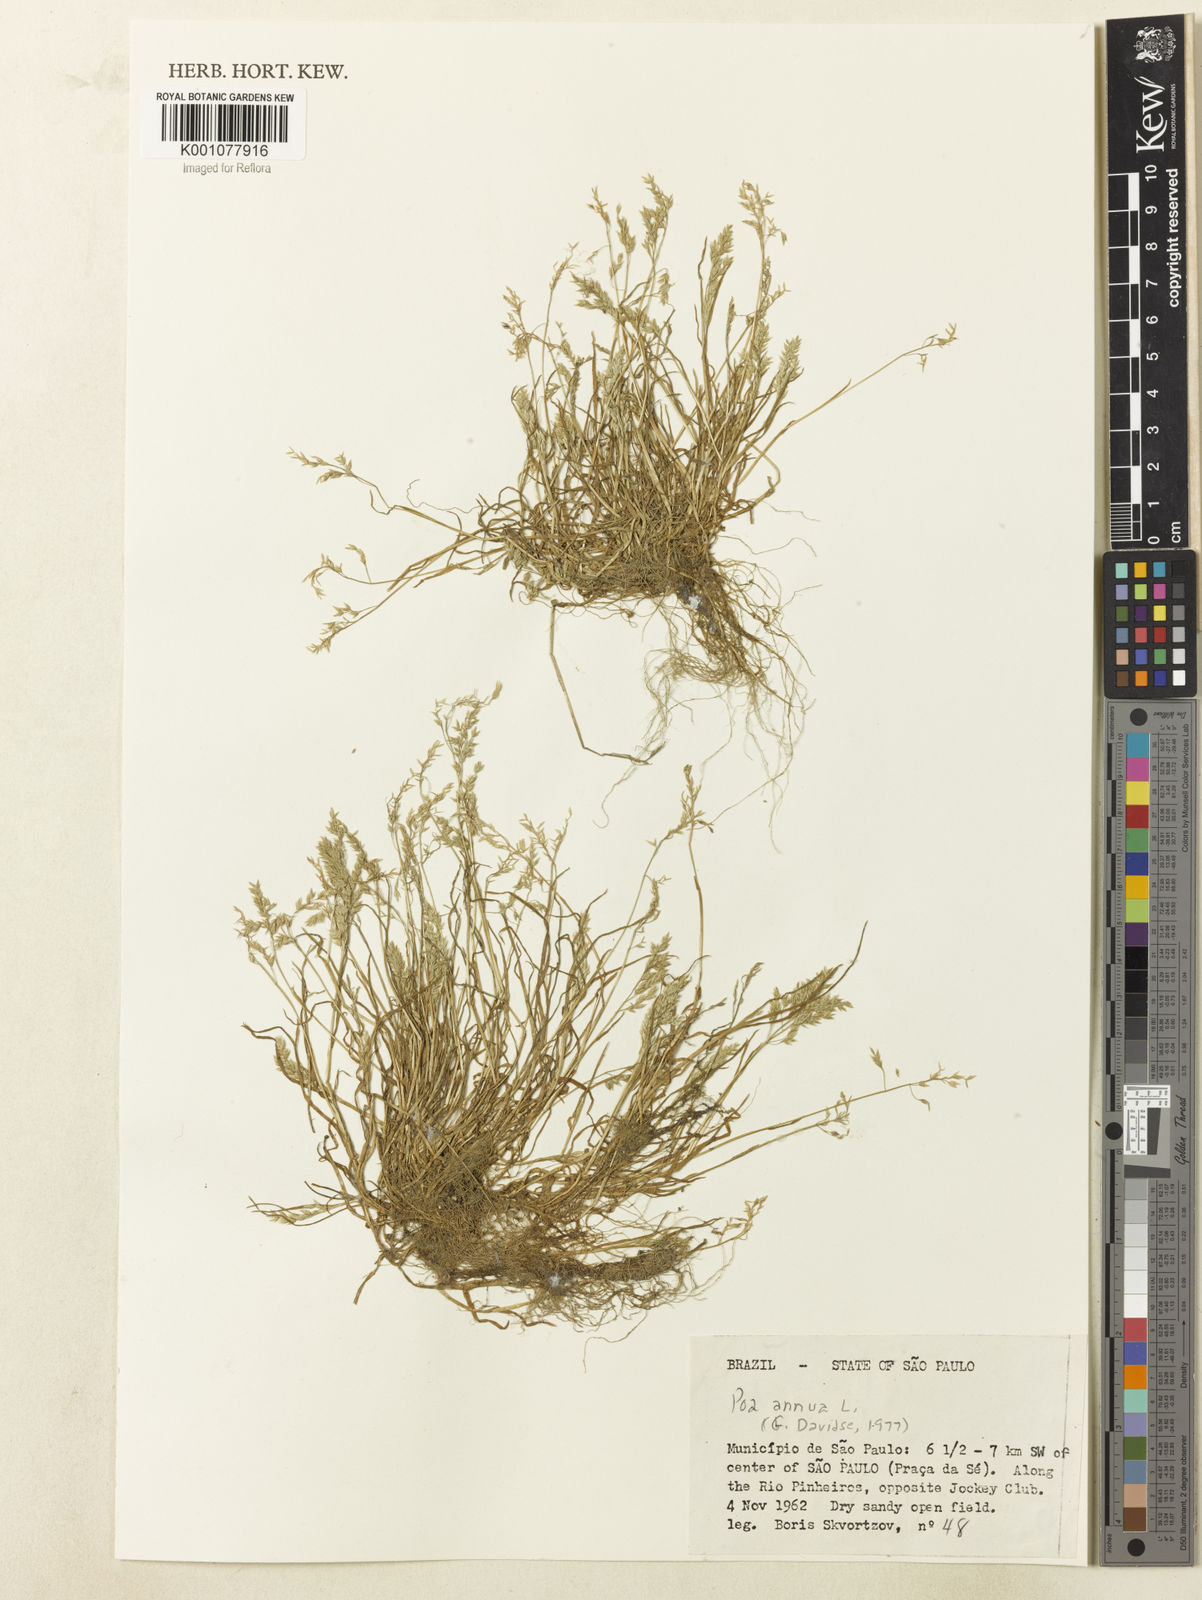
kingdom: Plantae
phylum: Tracheophyta
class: Liliopsida
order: Poales
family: Poaceae
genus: Poa
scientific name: Poa annua
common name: Annual bluegrass
